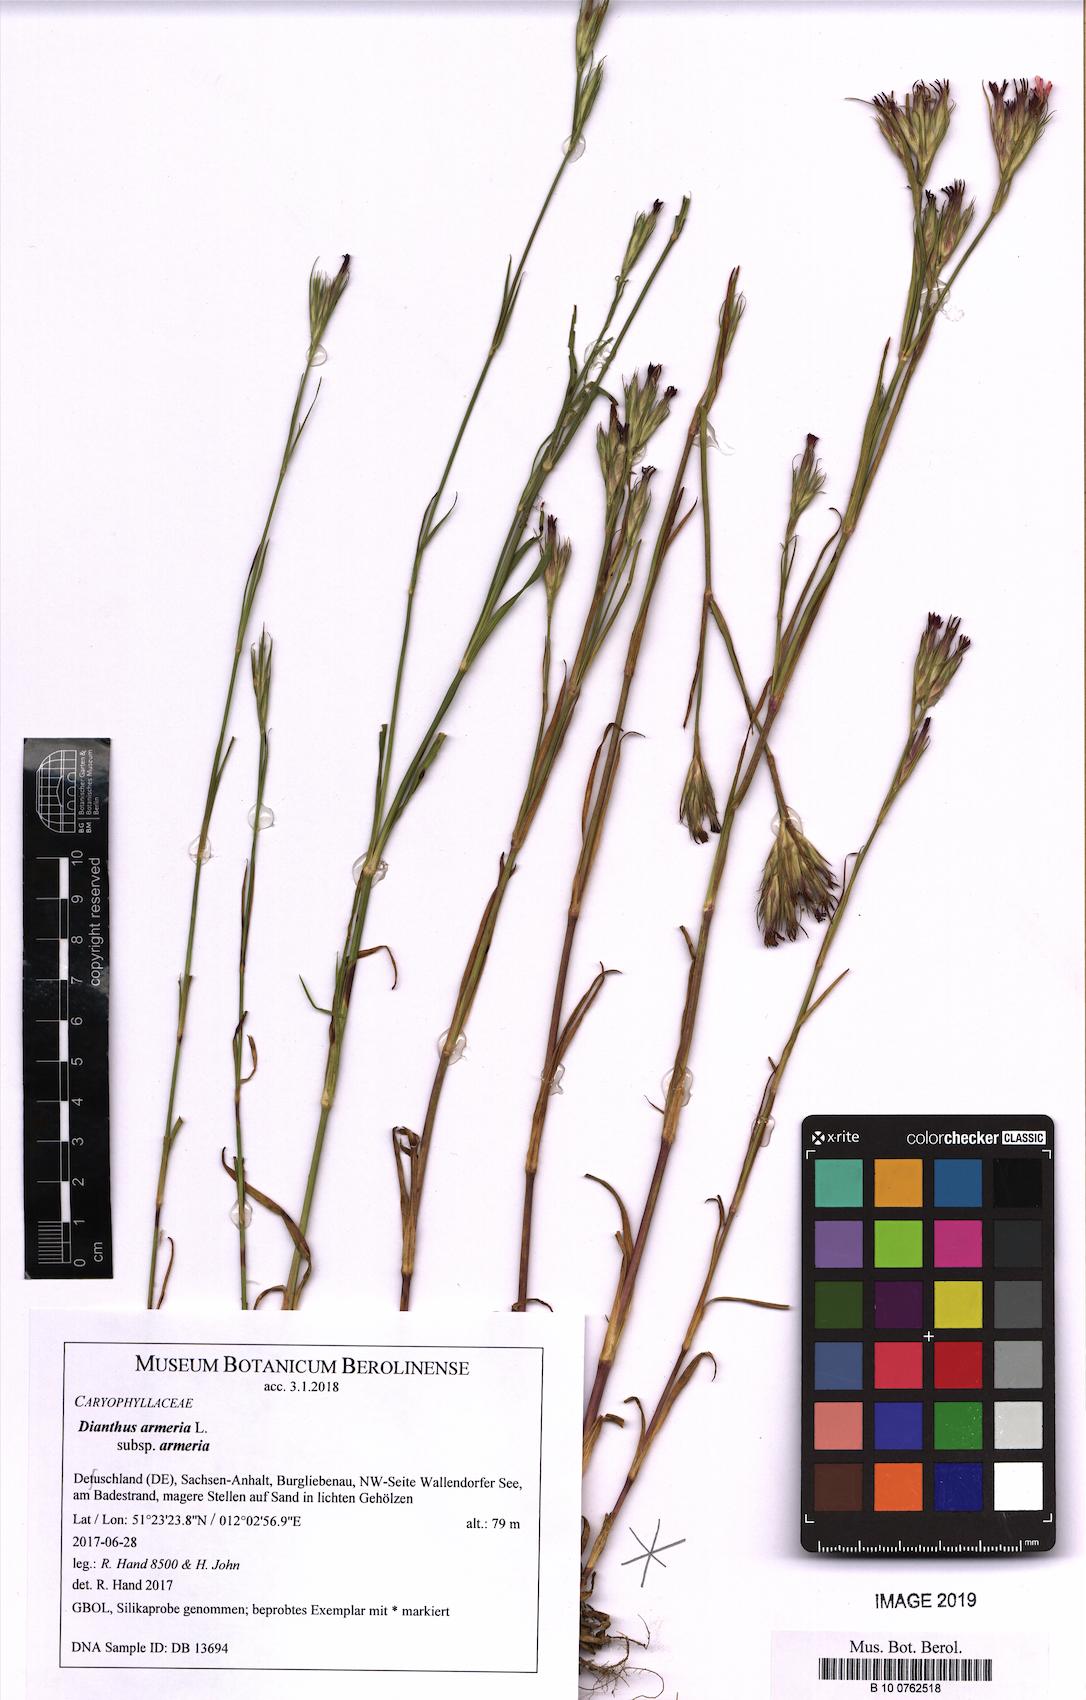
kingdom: Plantae
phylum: Tracheophyta
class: Magnoliopsida
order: Caryophyllales
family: Caryophyllaceae
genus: Dianthus
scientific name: Dianthus armeria
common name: Deptford pink
